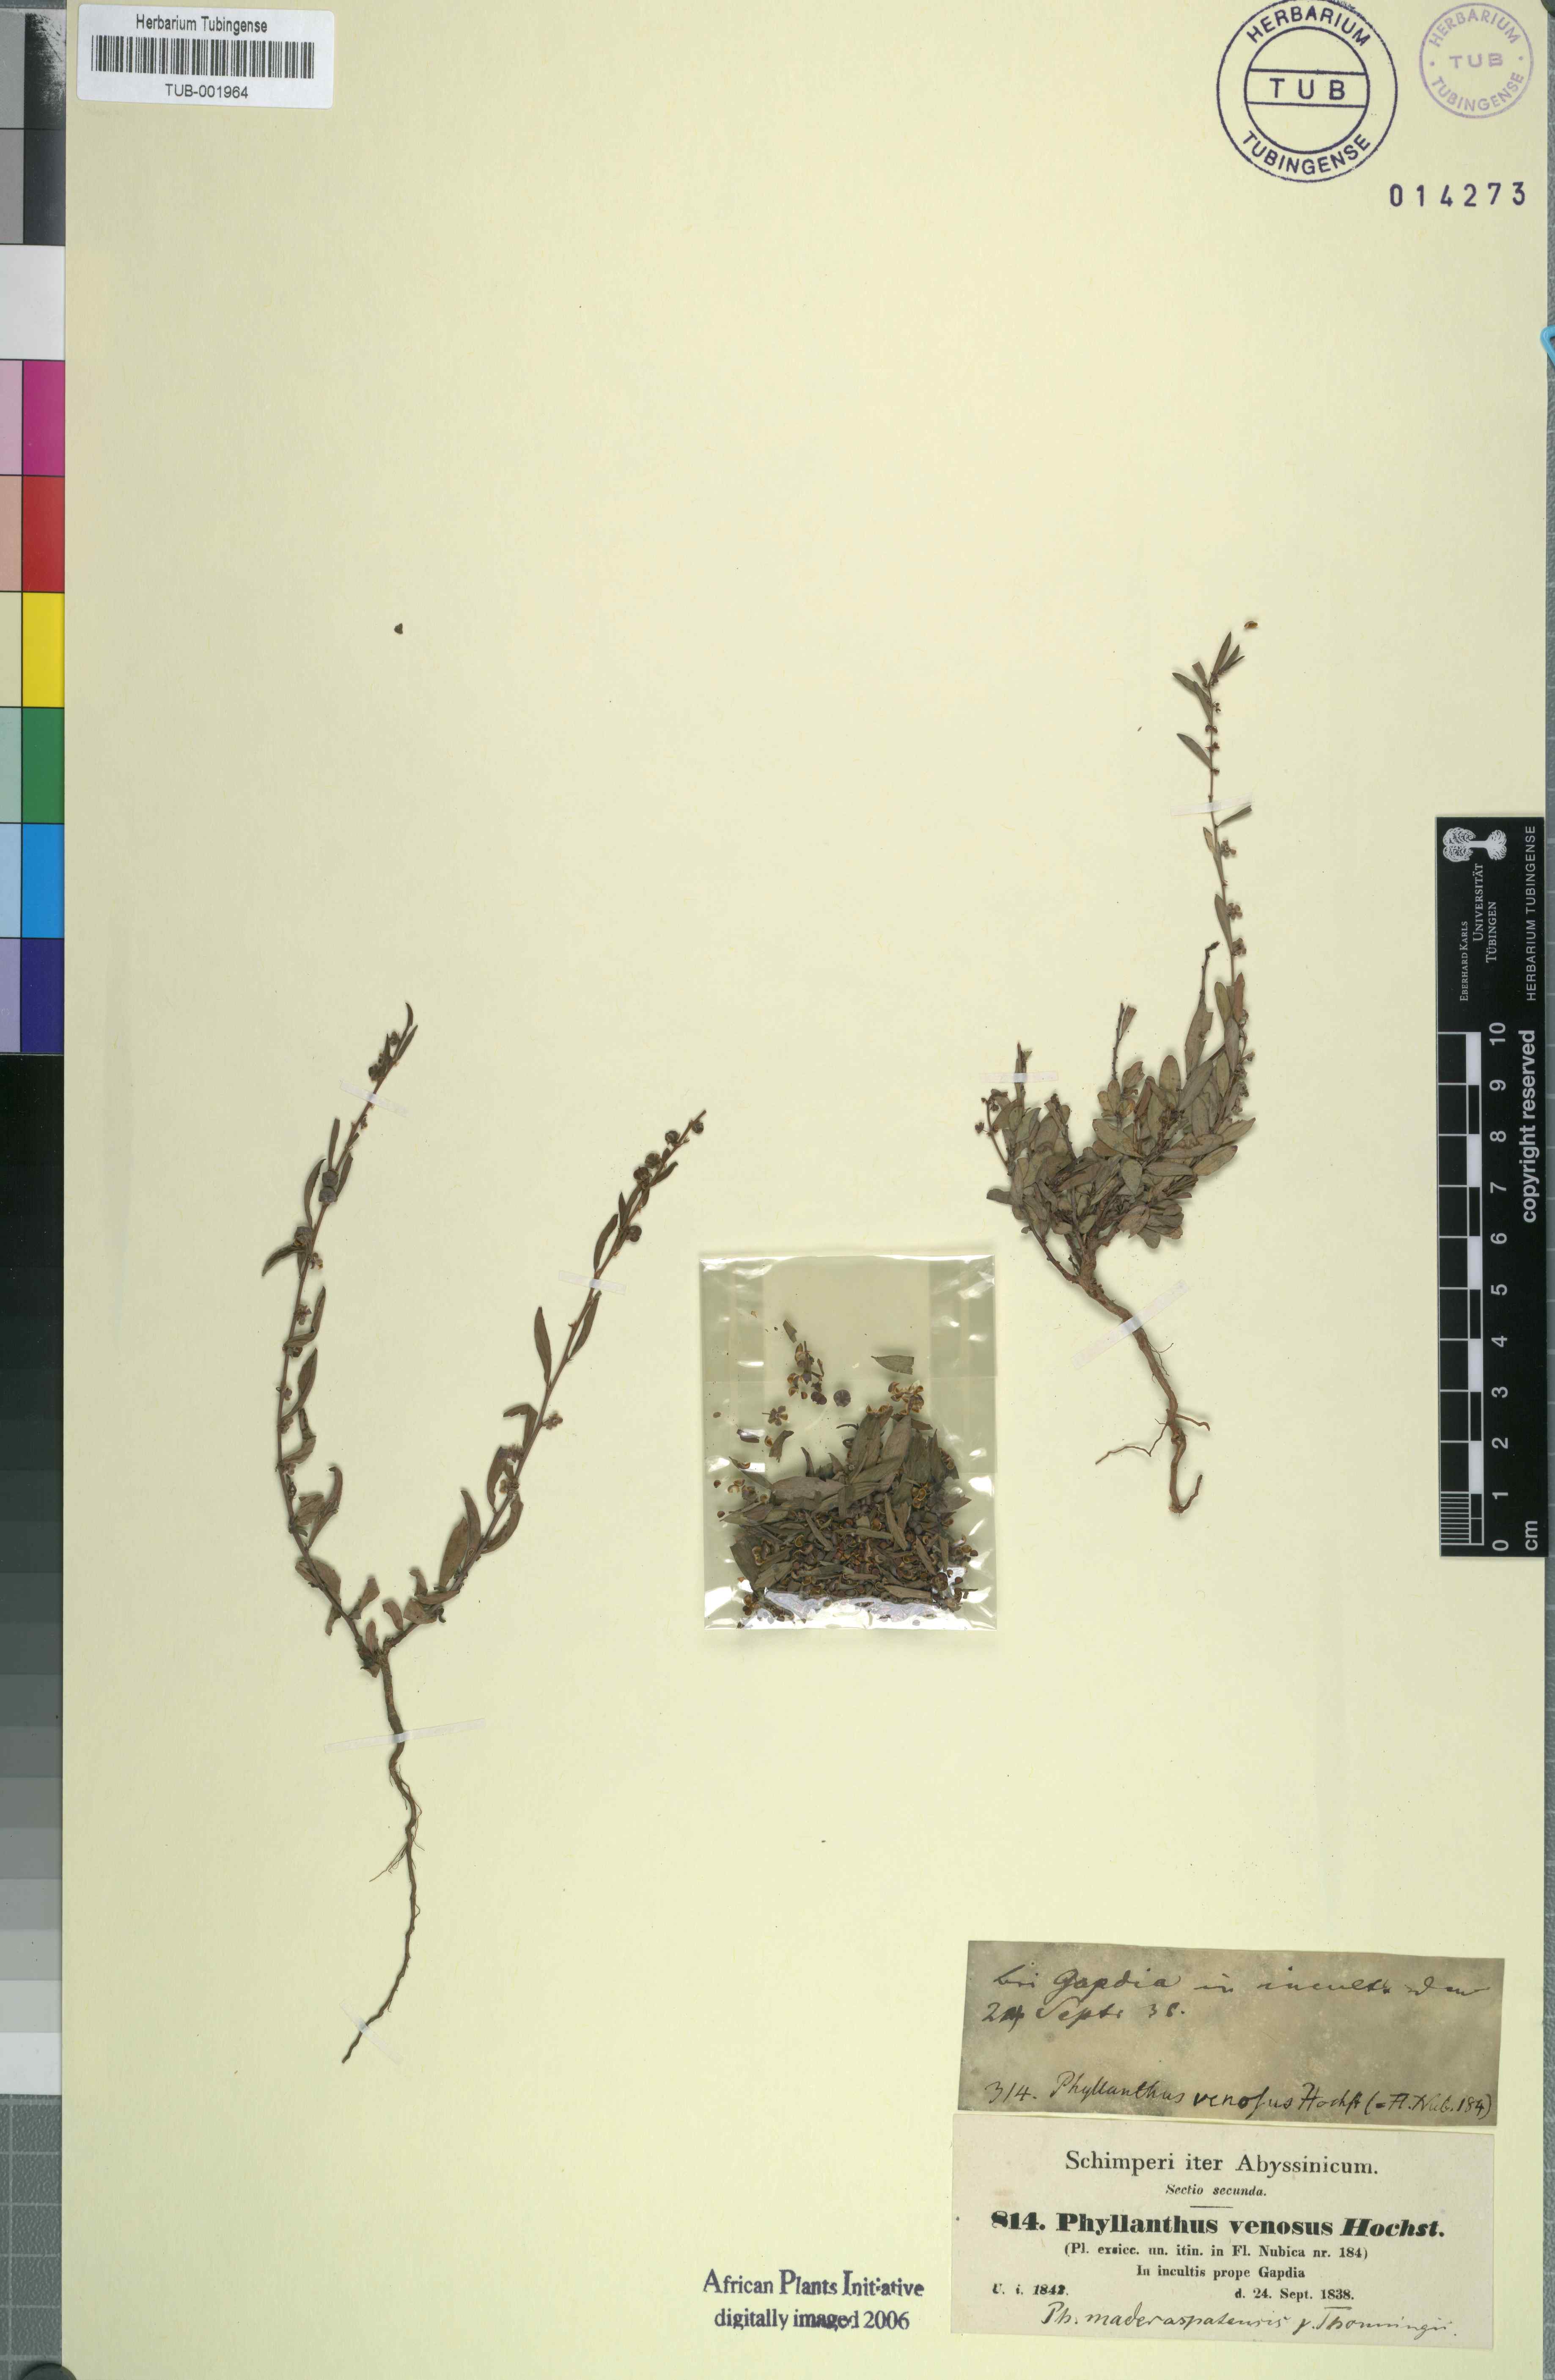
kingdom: Plantae
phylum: Tracheophyta
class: Magnoliopsida
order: Malpighiales
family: Phyllanthaceae
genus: Phyllanthus
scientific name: Phyllanthus maderaspatensis
